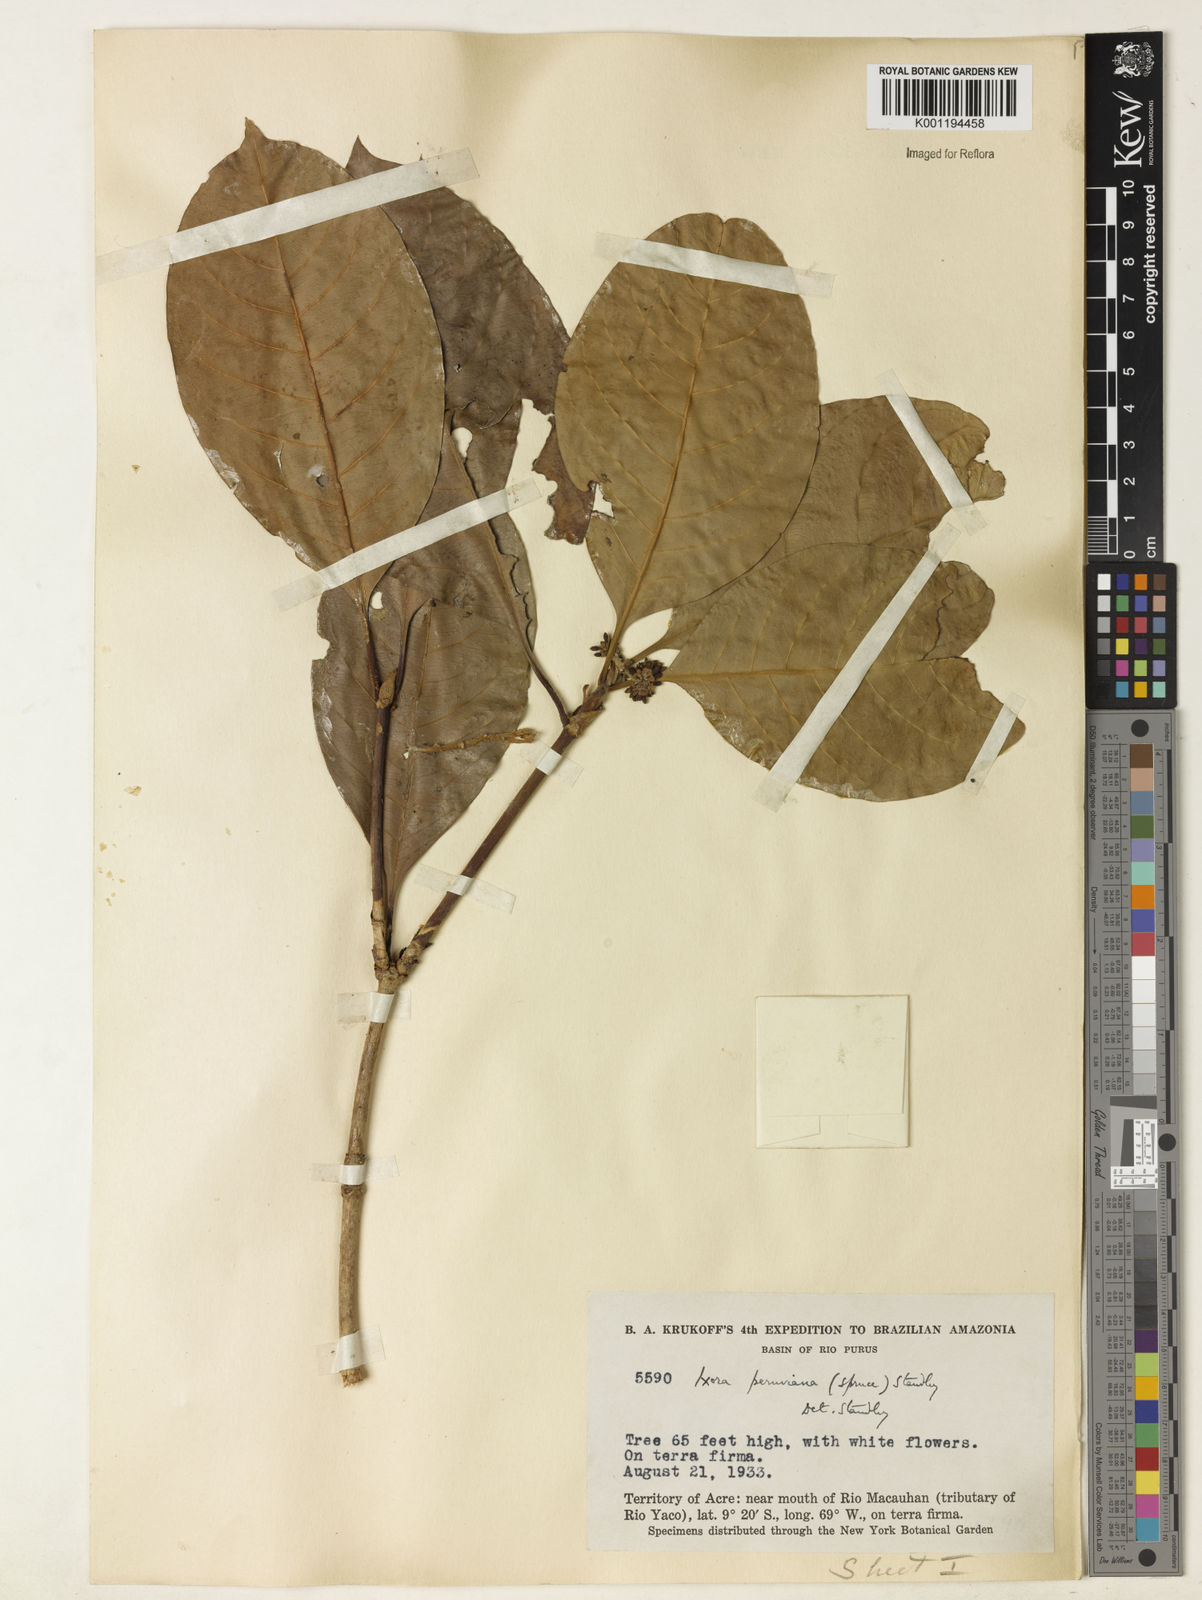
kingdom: Plantae
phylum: Tracheophyta
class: Magnoliopsida
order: Gentianales
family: Rubiaceae
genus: Ixora
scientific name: Ixora peruviana
